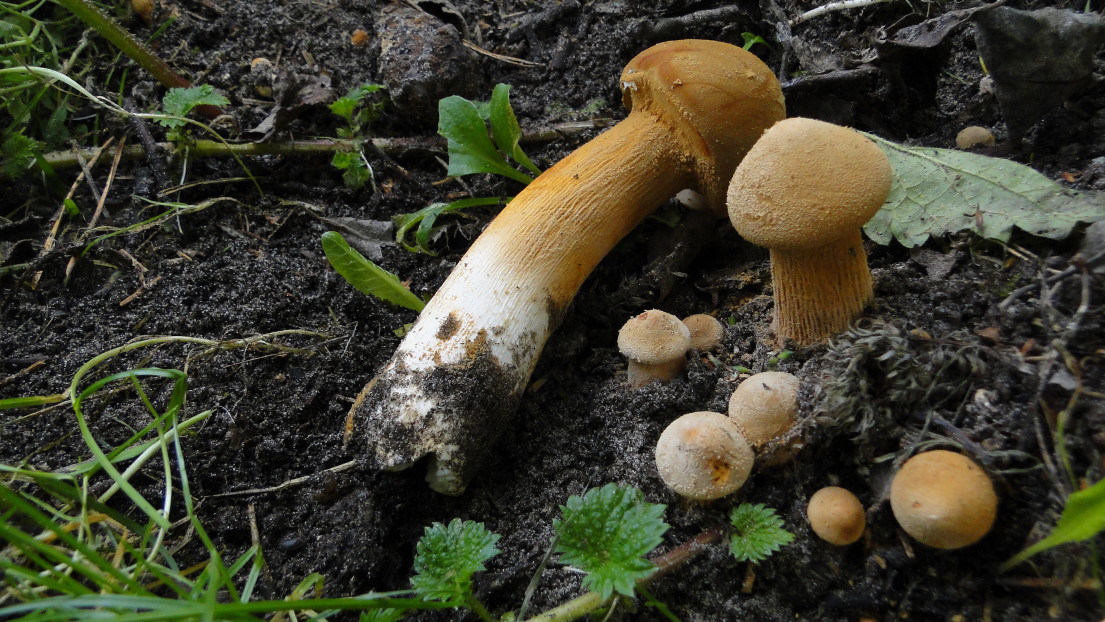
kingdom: Fungi
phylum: Basidiomycota
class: Agaricomycetes
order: Agaricales
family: Tricholomataceae
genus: Phaeolepiota
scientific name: Phaeolepiota aurea
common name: gyldenhat
